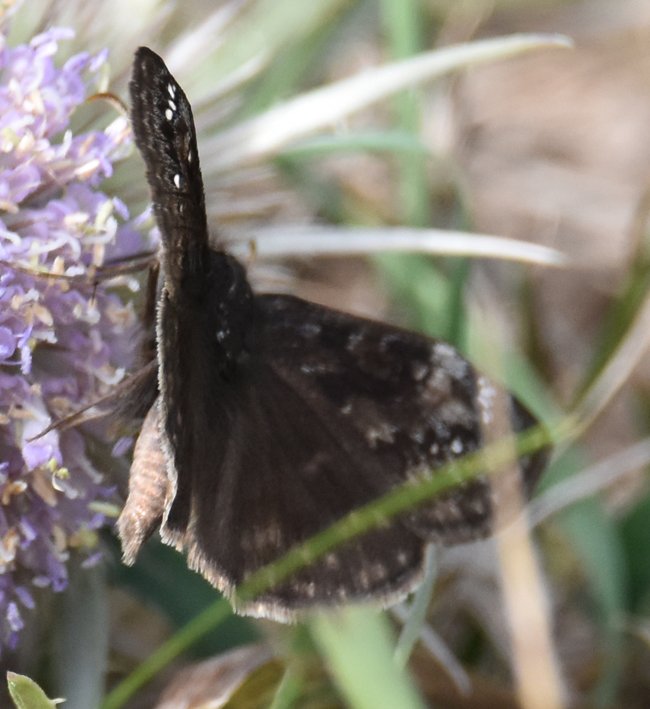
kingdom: Animalia
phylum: Arthropoda
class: Insecta
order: Lepidoptera
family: Hesperiidae
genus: Gesta
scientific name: Gesta
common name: Wild Indigo Duskywing
